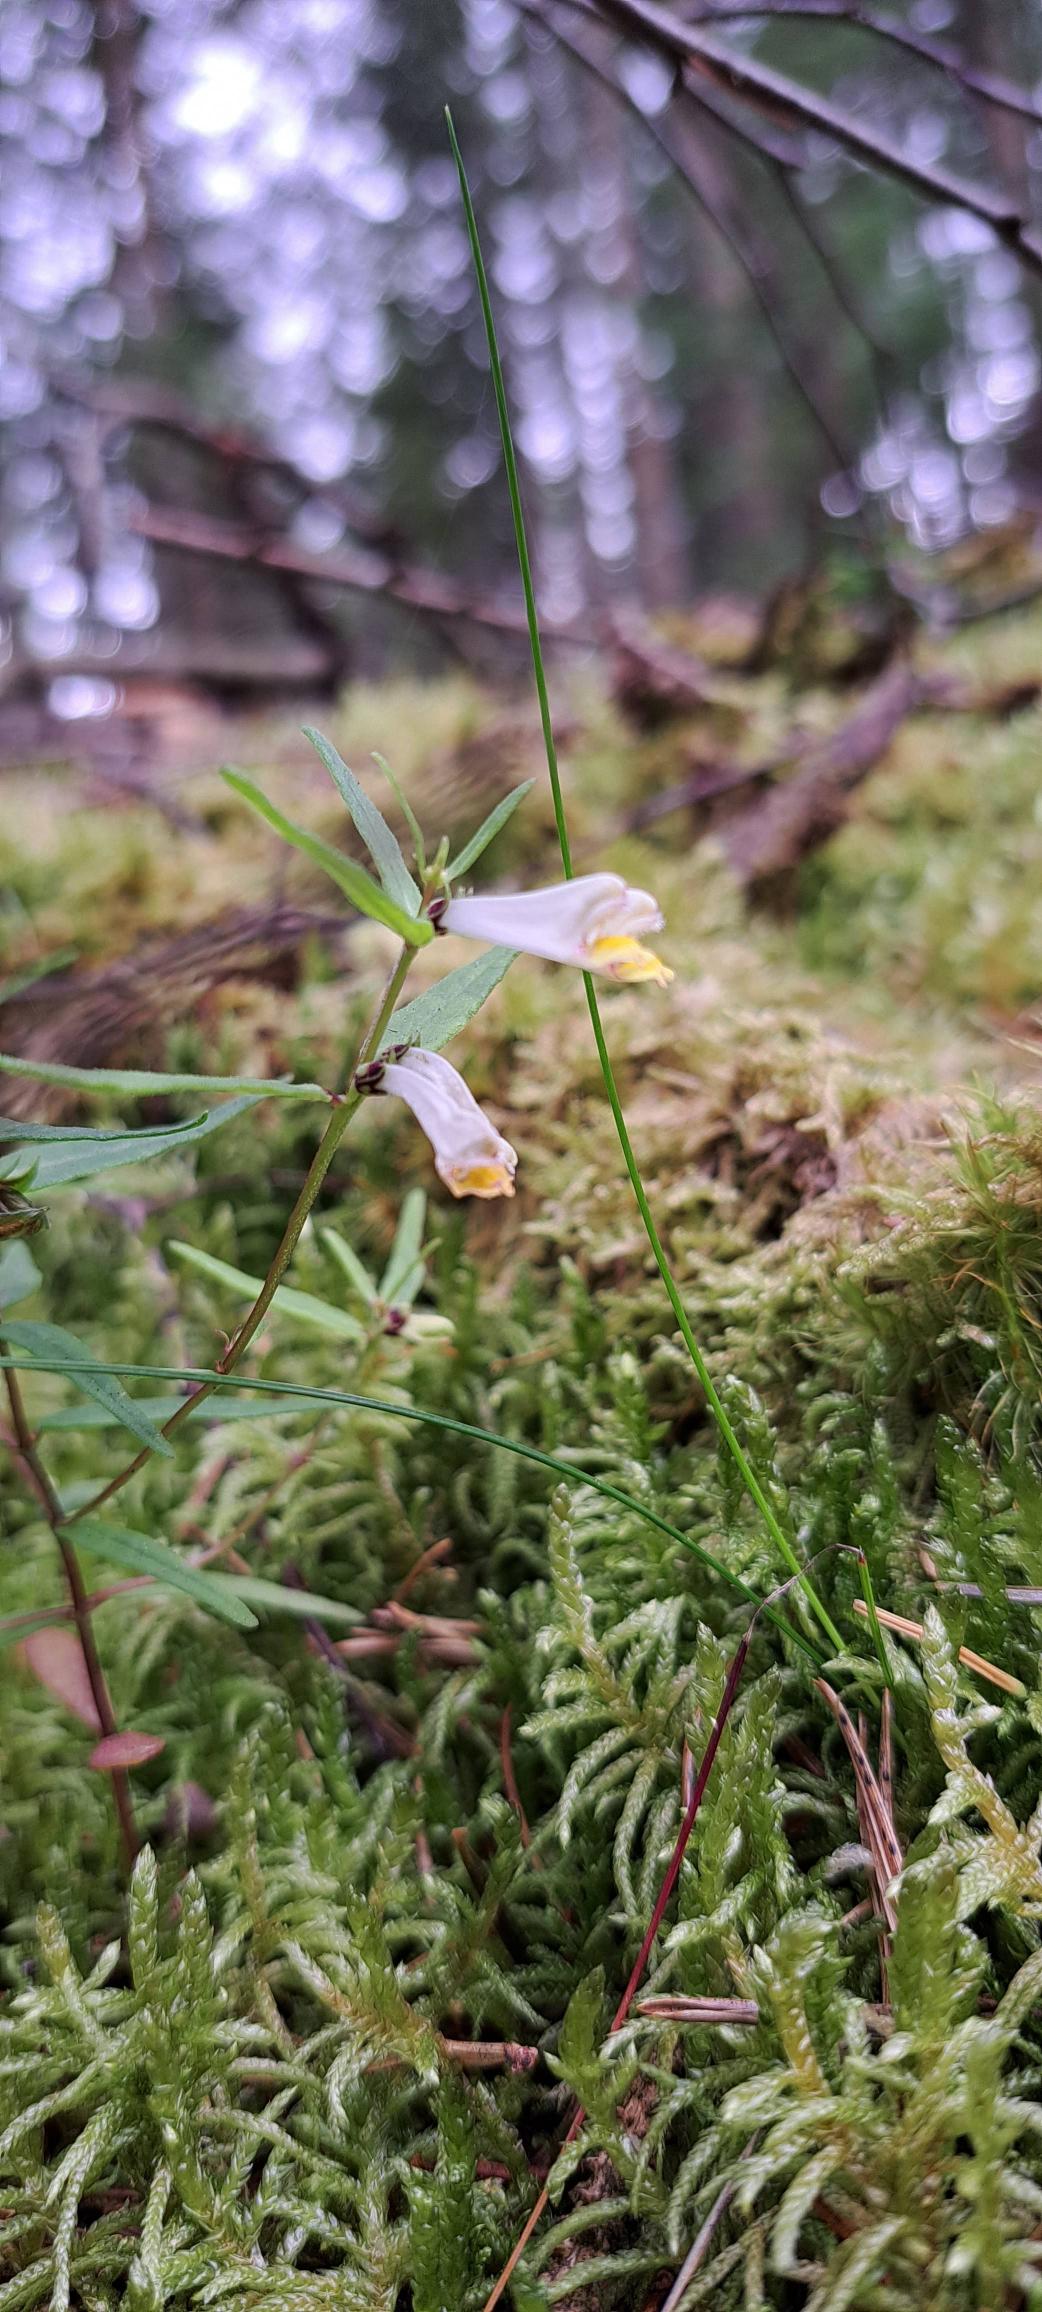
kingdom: Plantae
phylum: Tracheophyta
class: Magnoliopsida
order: Lamiales
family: Orobanchaceae
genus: Melampyrum
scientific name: Melampyrum pratense
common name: Almindelig kohvede
